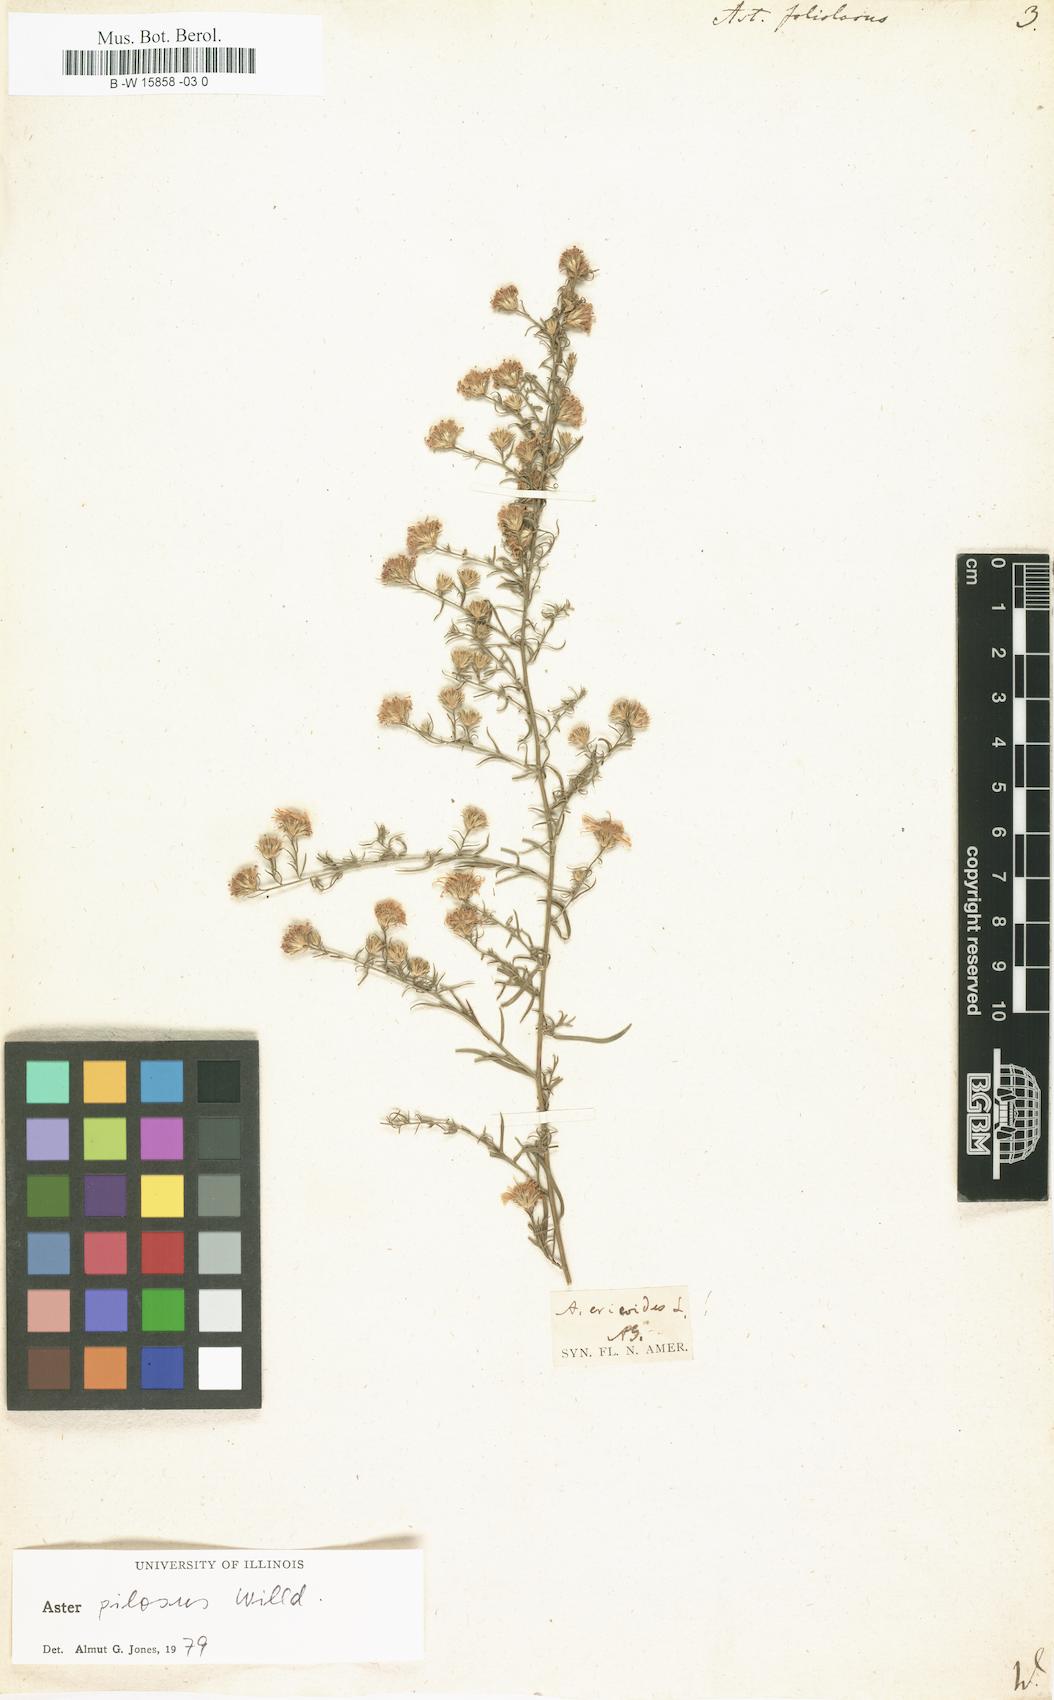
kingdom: Plantae
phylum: Tracheophyta
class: Magnoliopsida
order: Asterales
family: Asteraceae
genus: Symphyotrichum
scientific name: Symphyotrichum racemosum
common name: Small white aster
